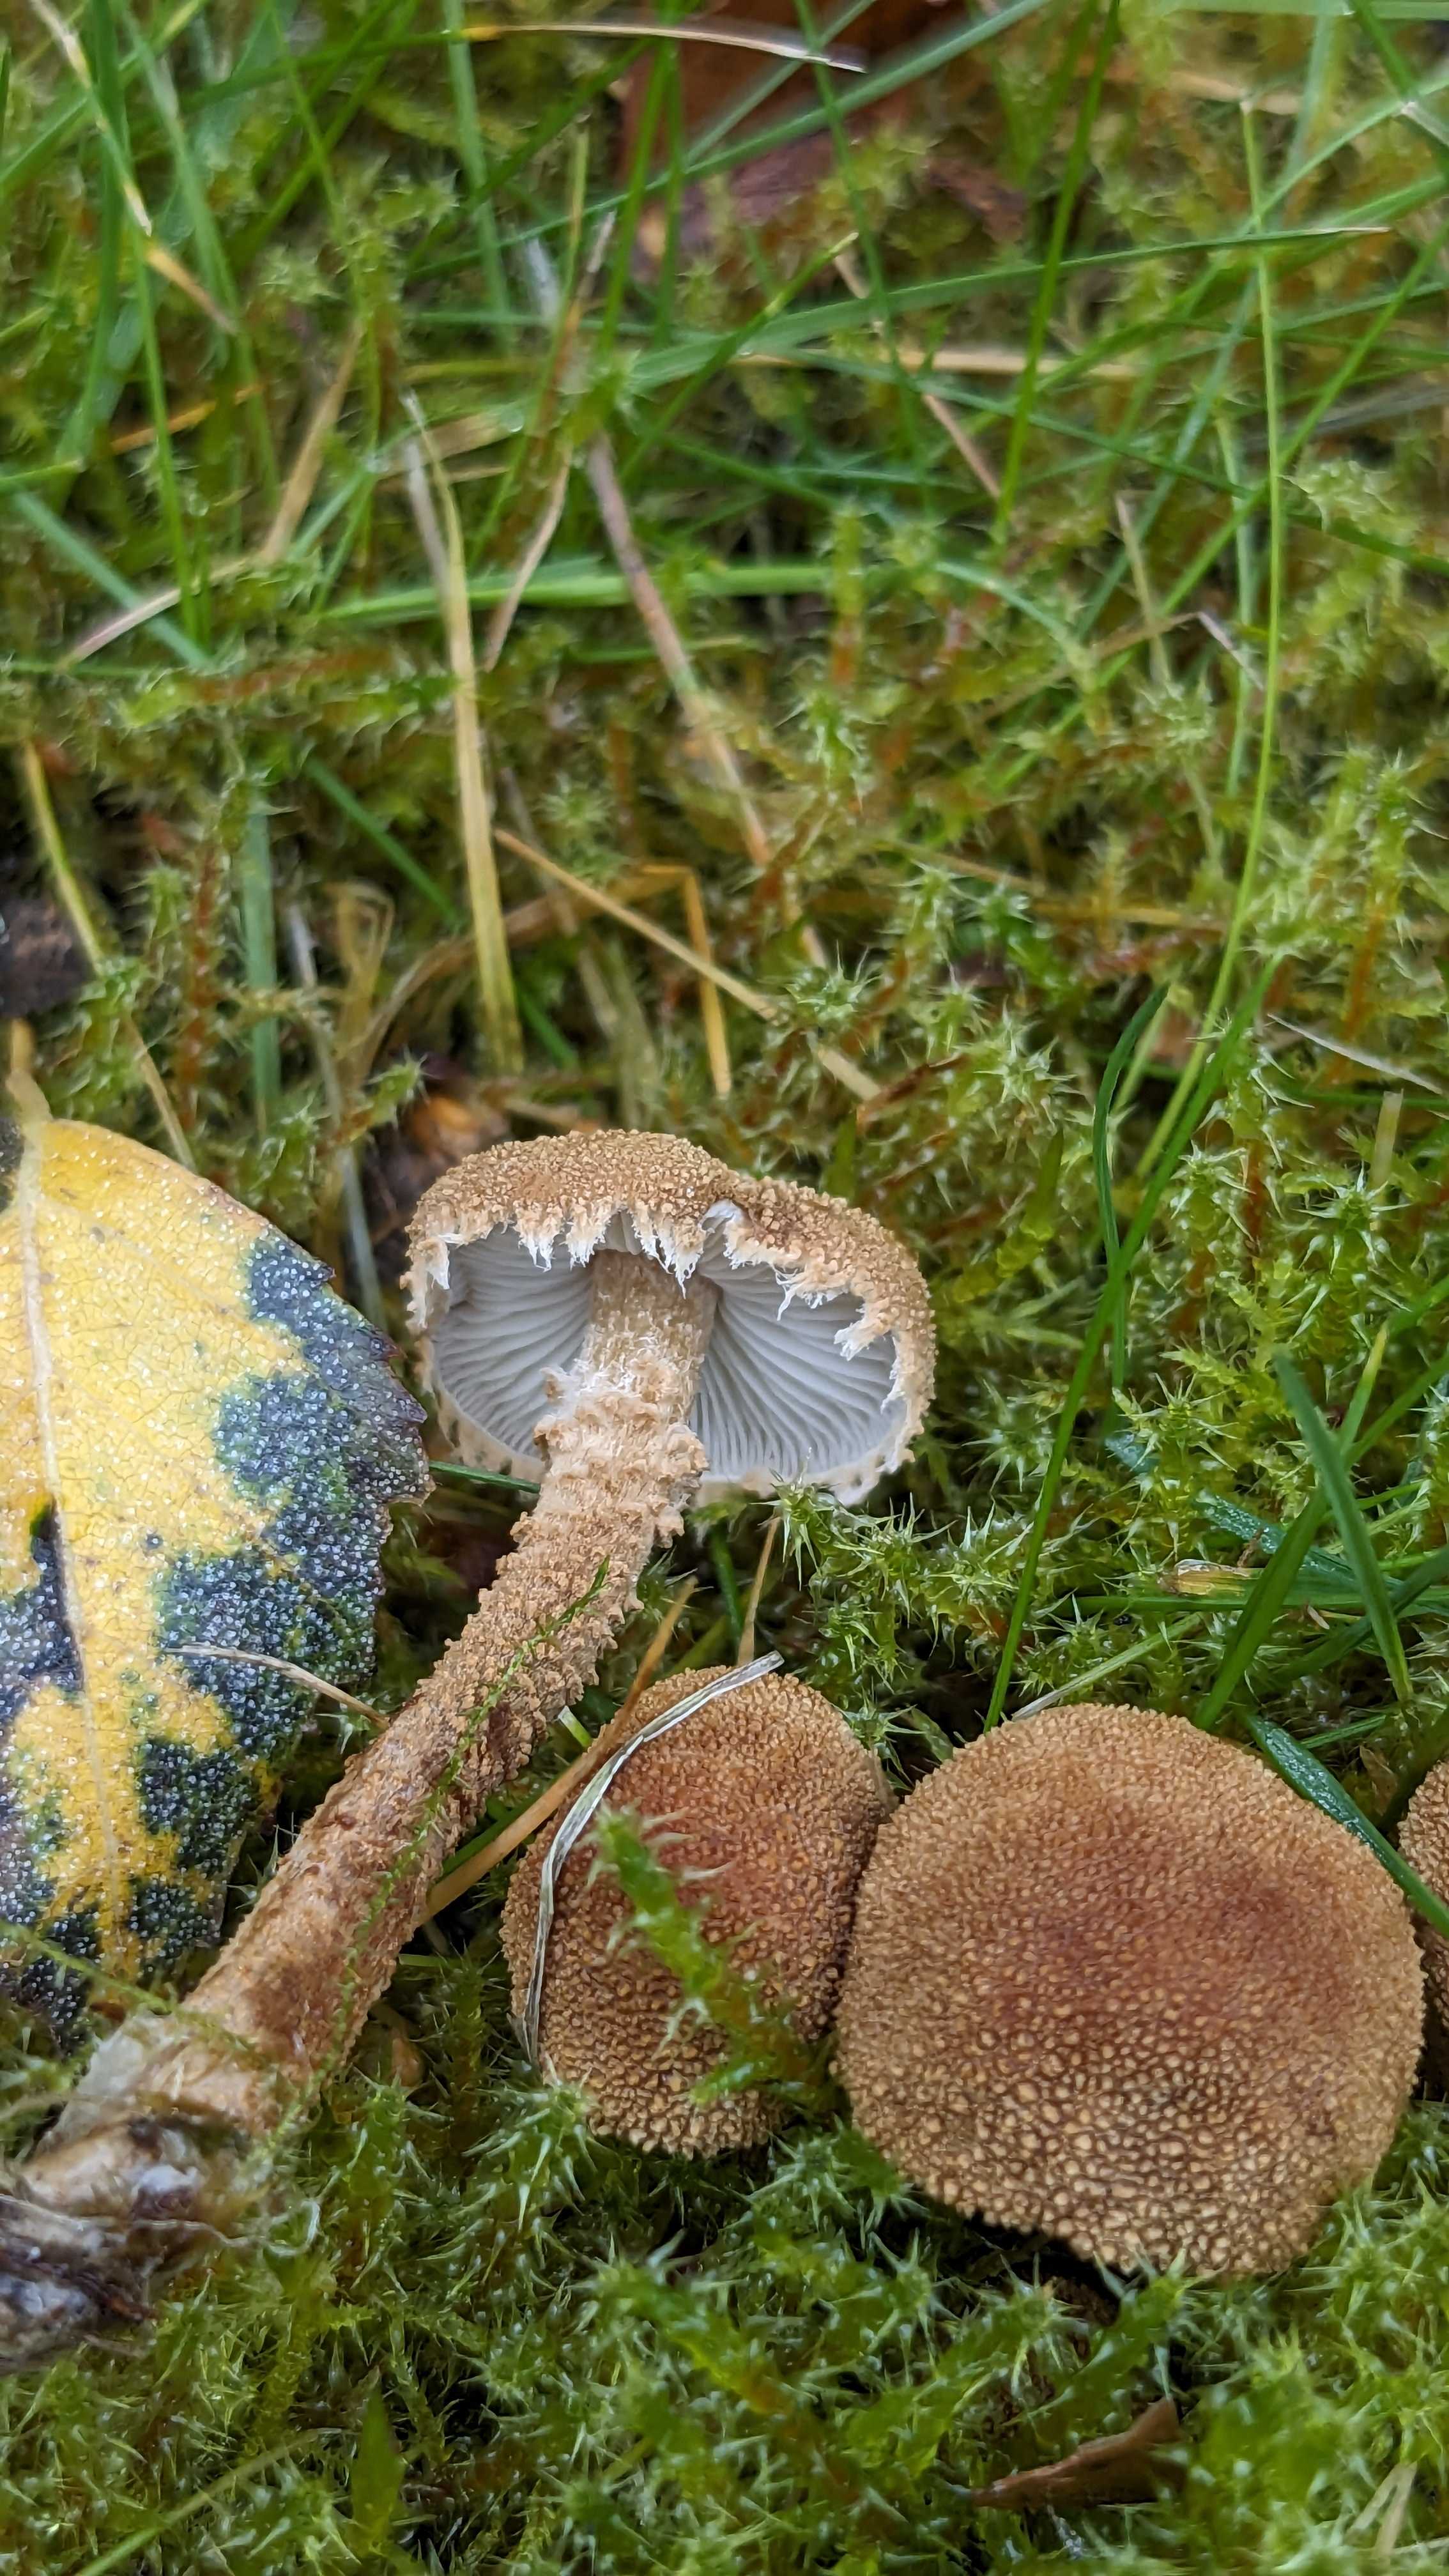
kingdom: Fungi
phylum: Basidiomycota
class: Agaricomycetes
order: Agaricales
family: Tricholomataceae
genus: Cystoderma
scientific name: Cystoderma amianthinum
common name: okkergul grynhat
